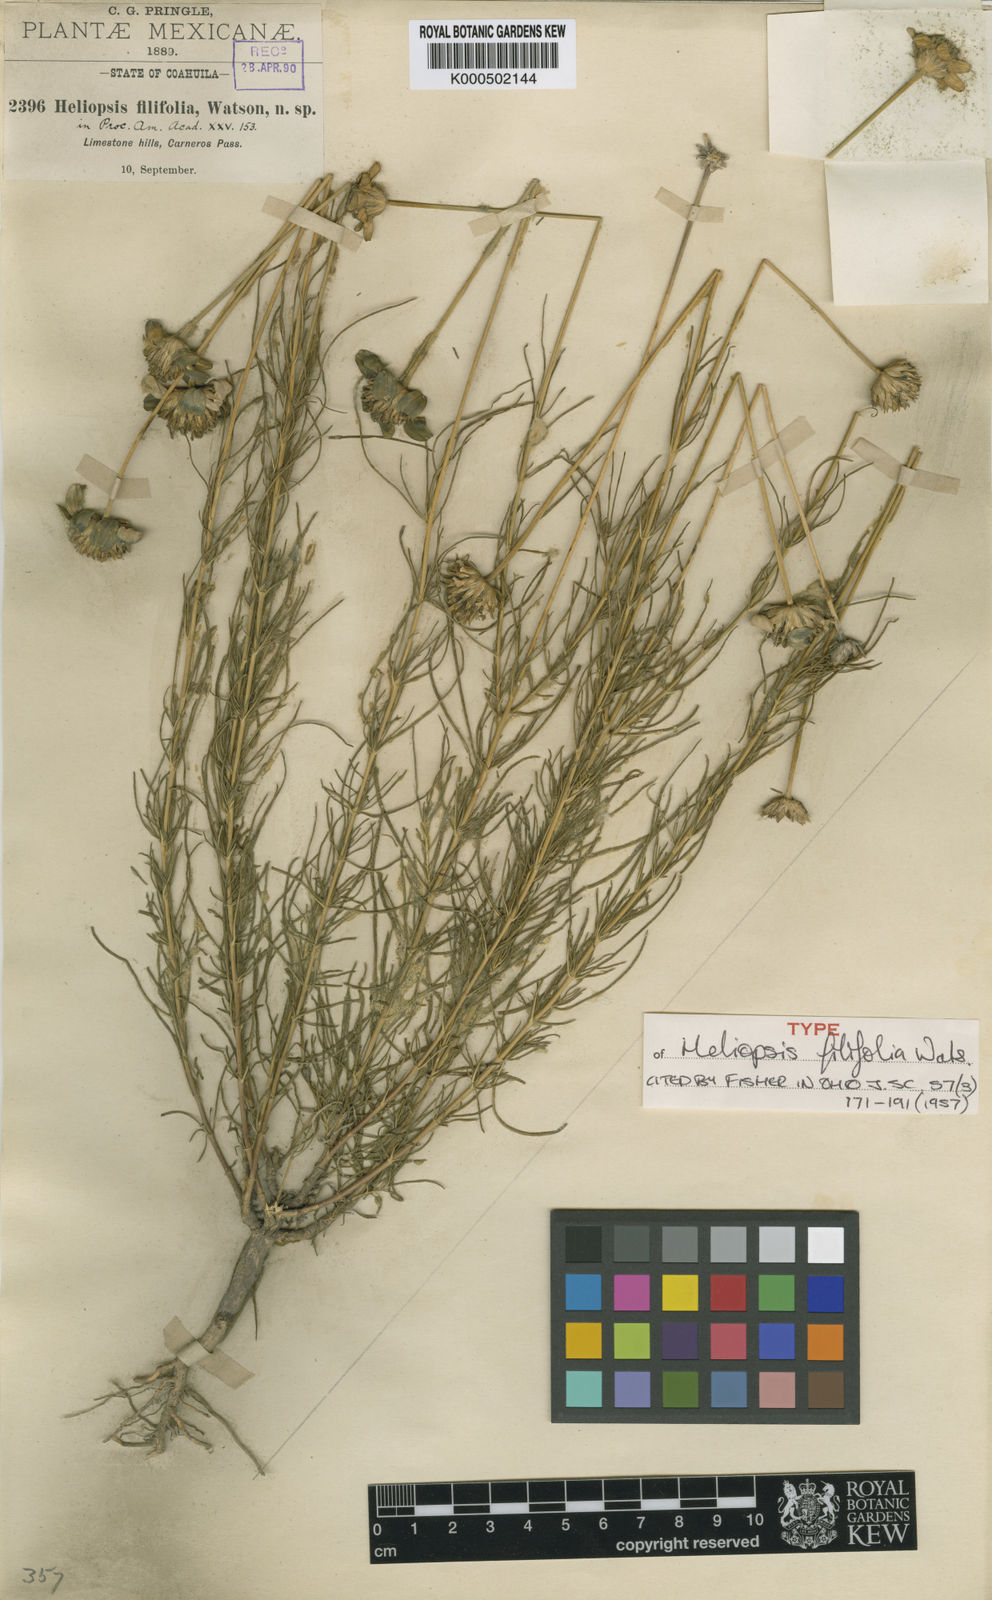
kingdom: Plantae
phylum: Tracheophyta
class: Magnoliopsida
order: Asterales
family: Asteraceae
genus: Heliopsis
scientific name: Heliopsis filifolia
